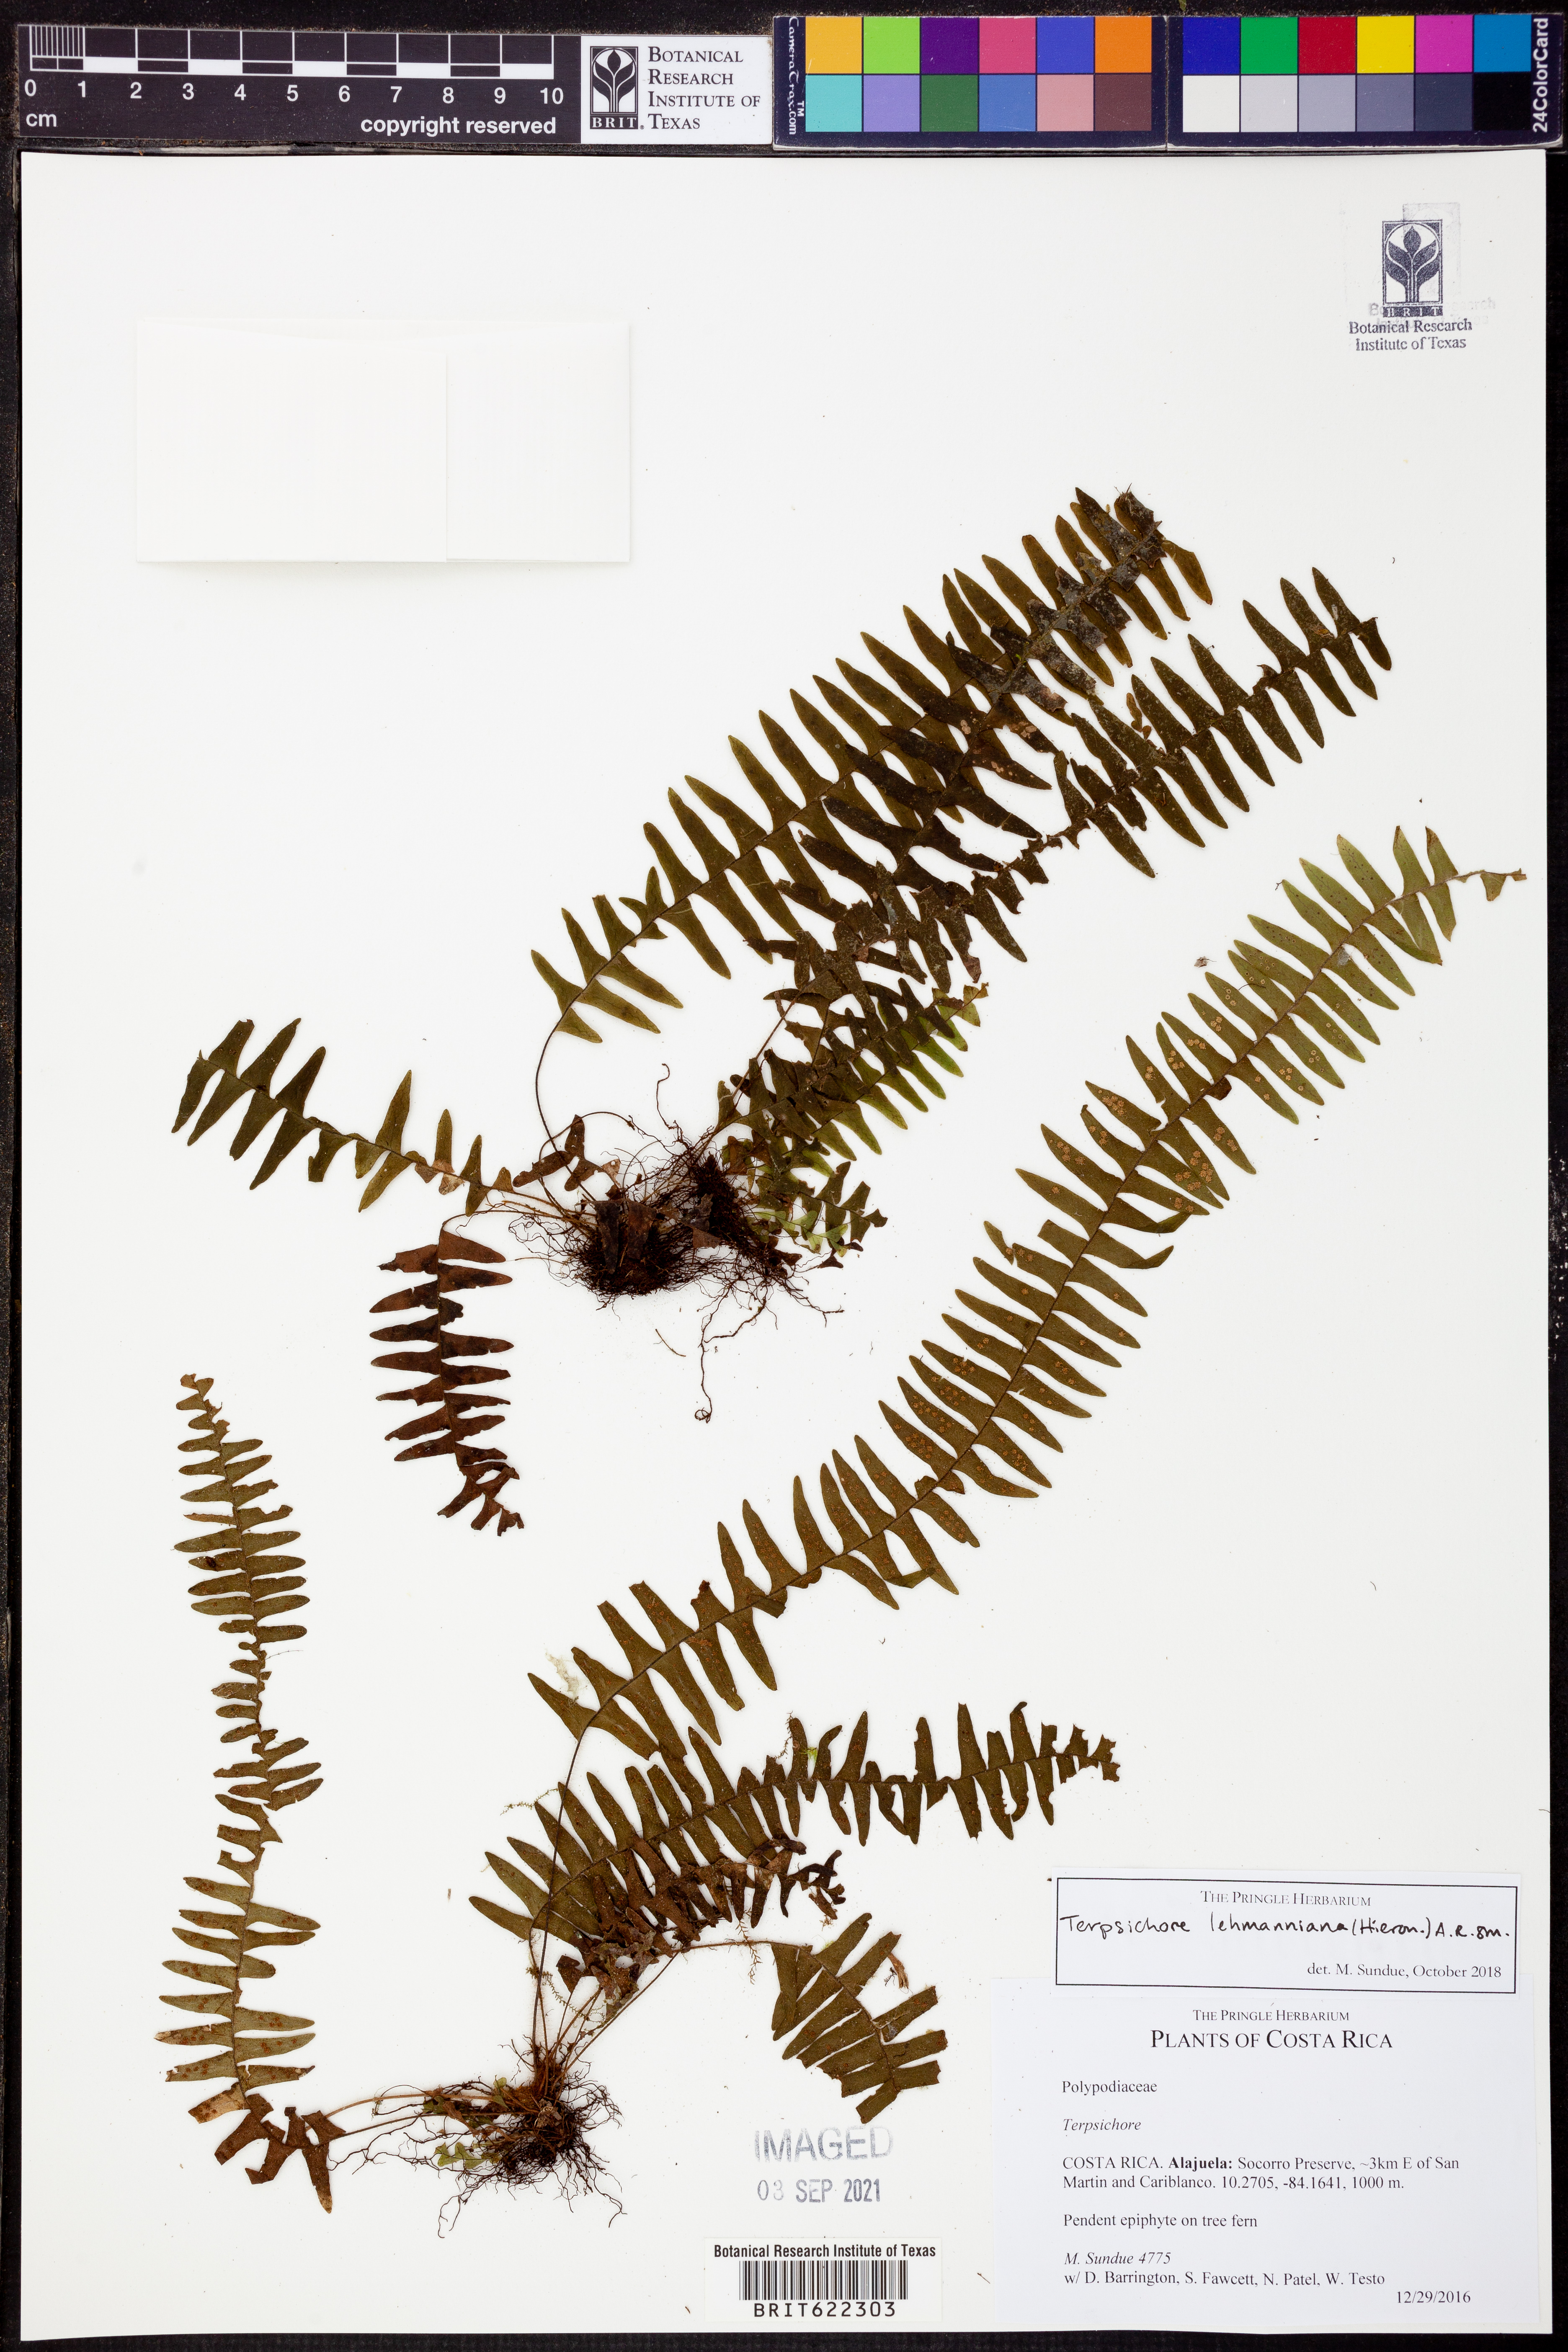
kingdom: Plantae
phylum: Tracheophyta
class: Polypodiopsida
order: Polypodiales
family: Polypodiaceae
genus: Terpsichore
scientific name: Terpsichore lehmanniana
